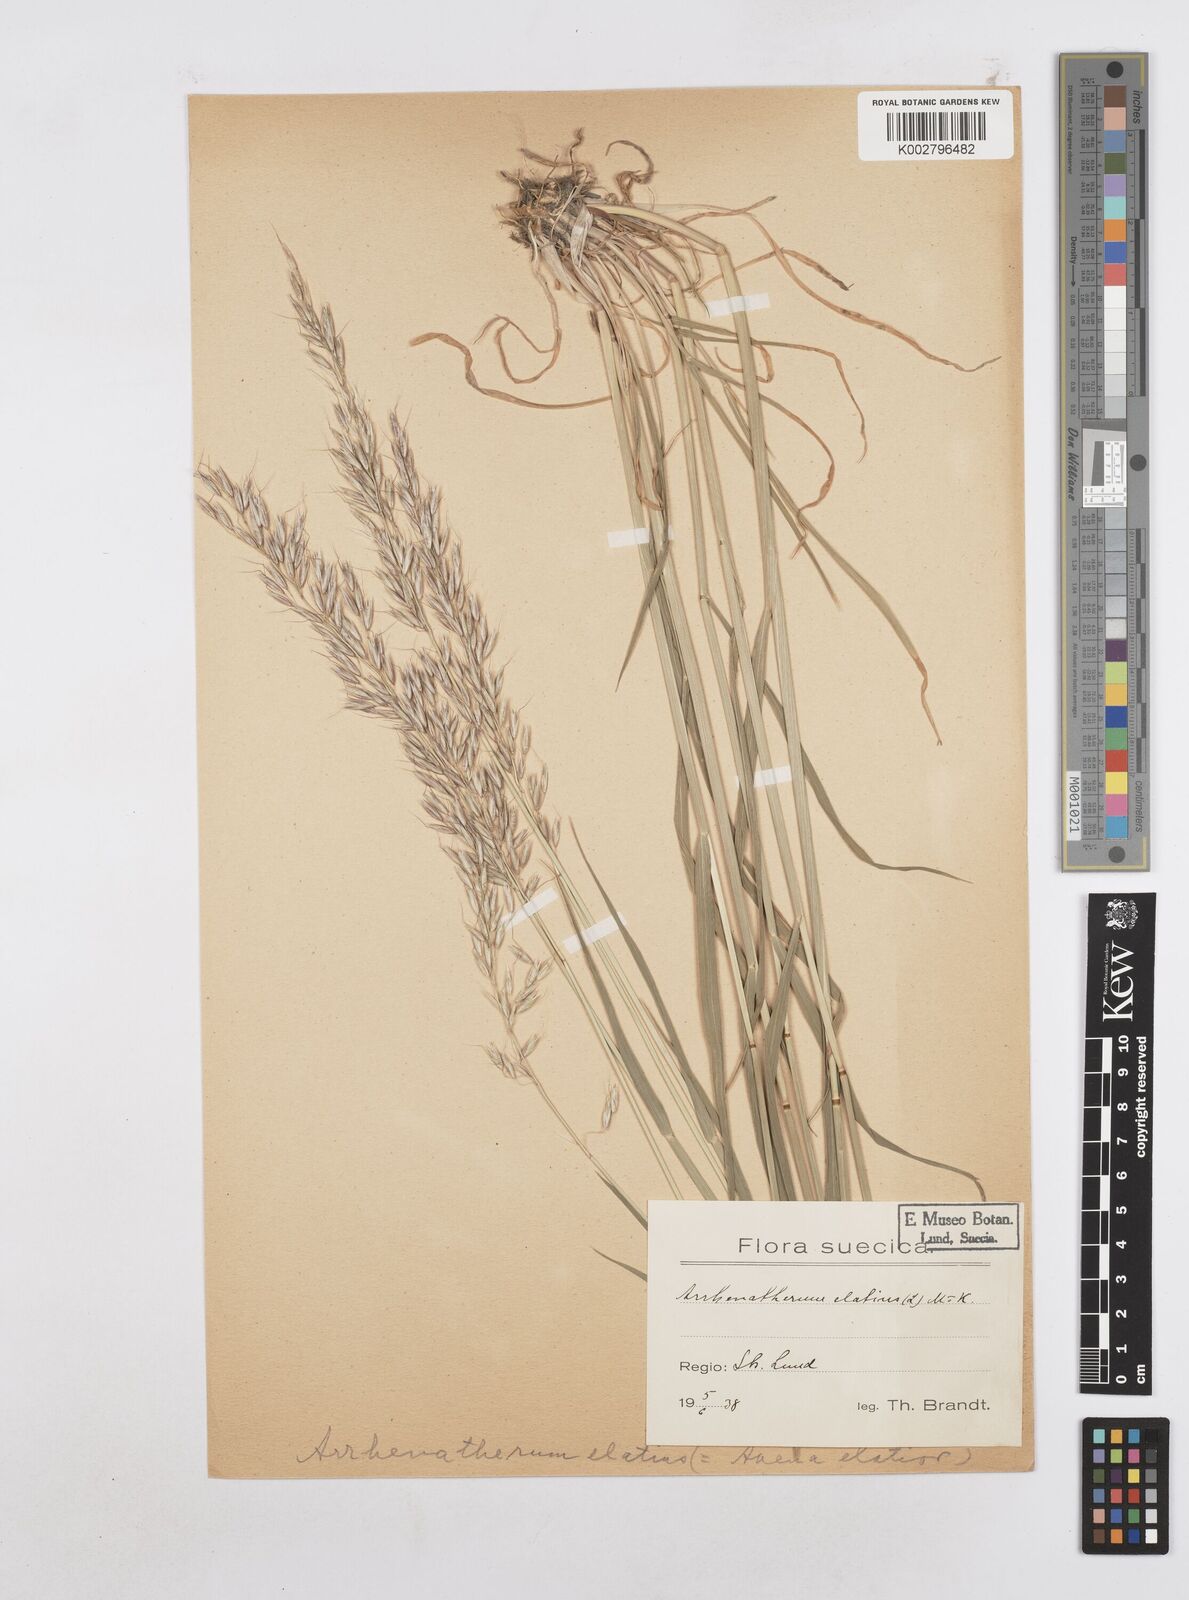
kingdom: Plantae
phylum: Tracheophyta
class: Liliopsida
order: Poales
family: Poaceae
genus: Arrhenatherum
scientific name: Arrhenatherum elatius
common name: Tall oatgrass
